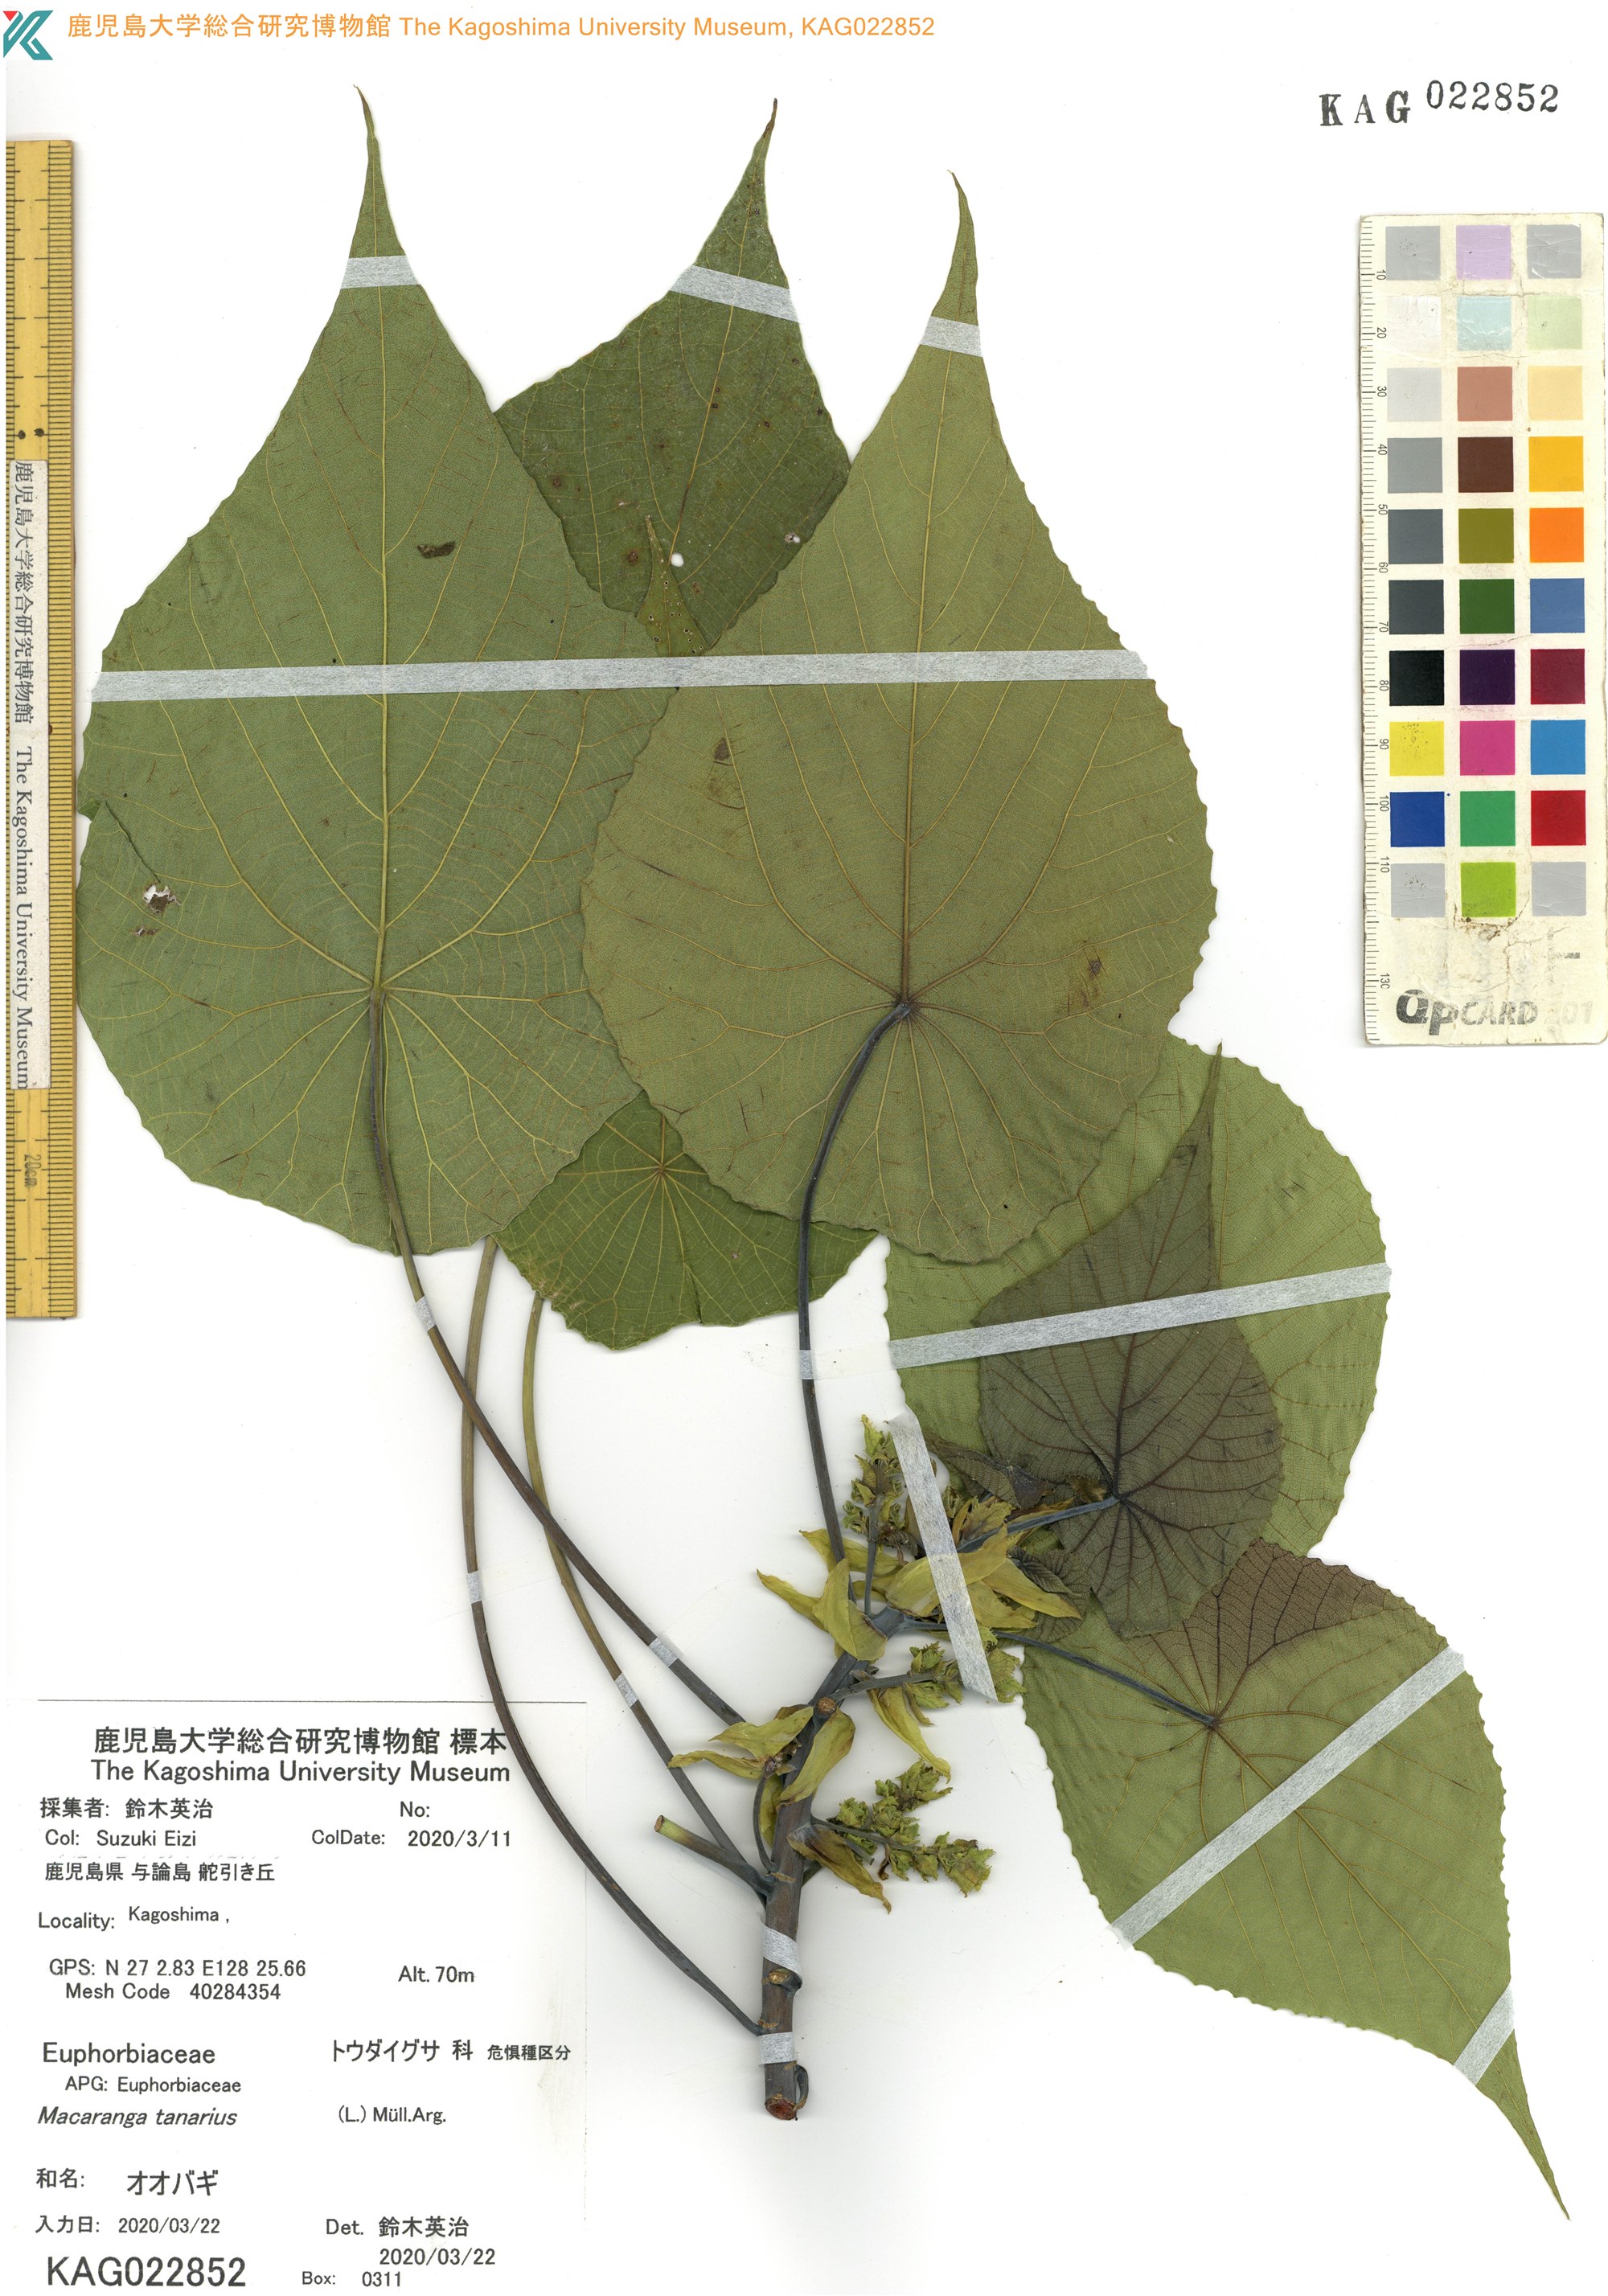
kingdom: Plantae
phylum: Tracheophyta
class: Magnoliopsida
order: Malpighiales
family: Euphorbiaceae
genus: Macaranga
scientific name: Macaranga tanarius
